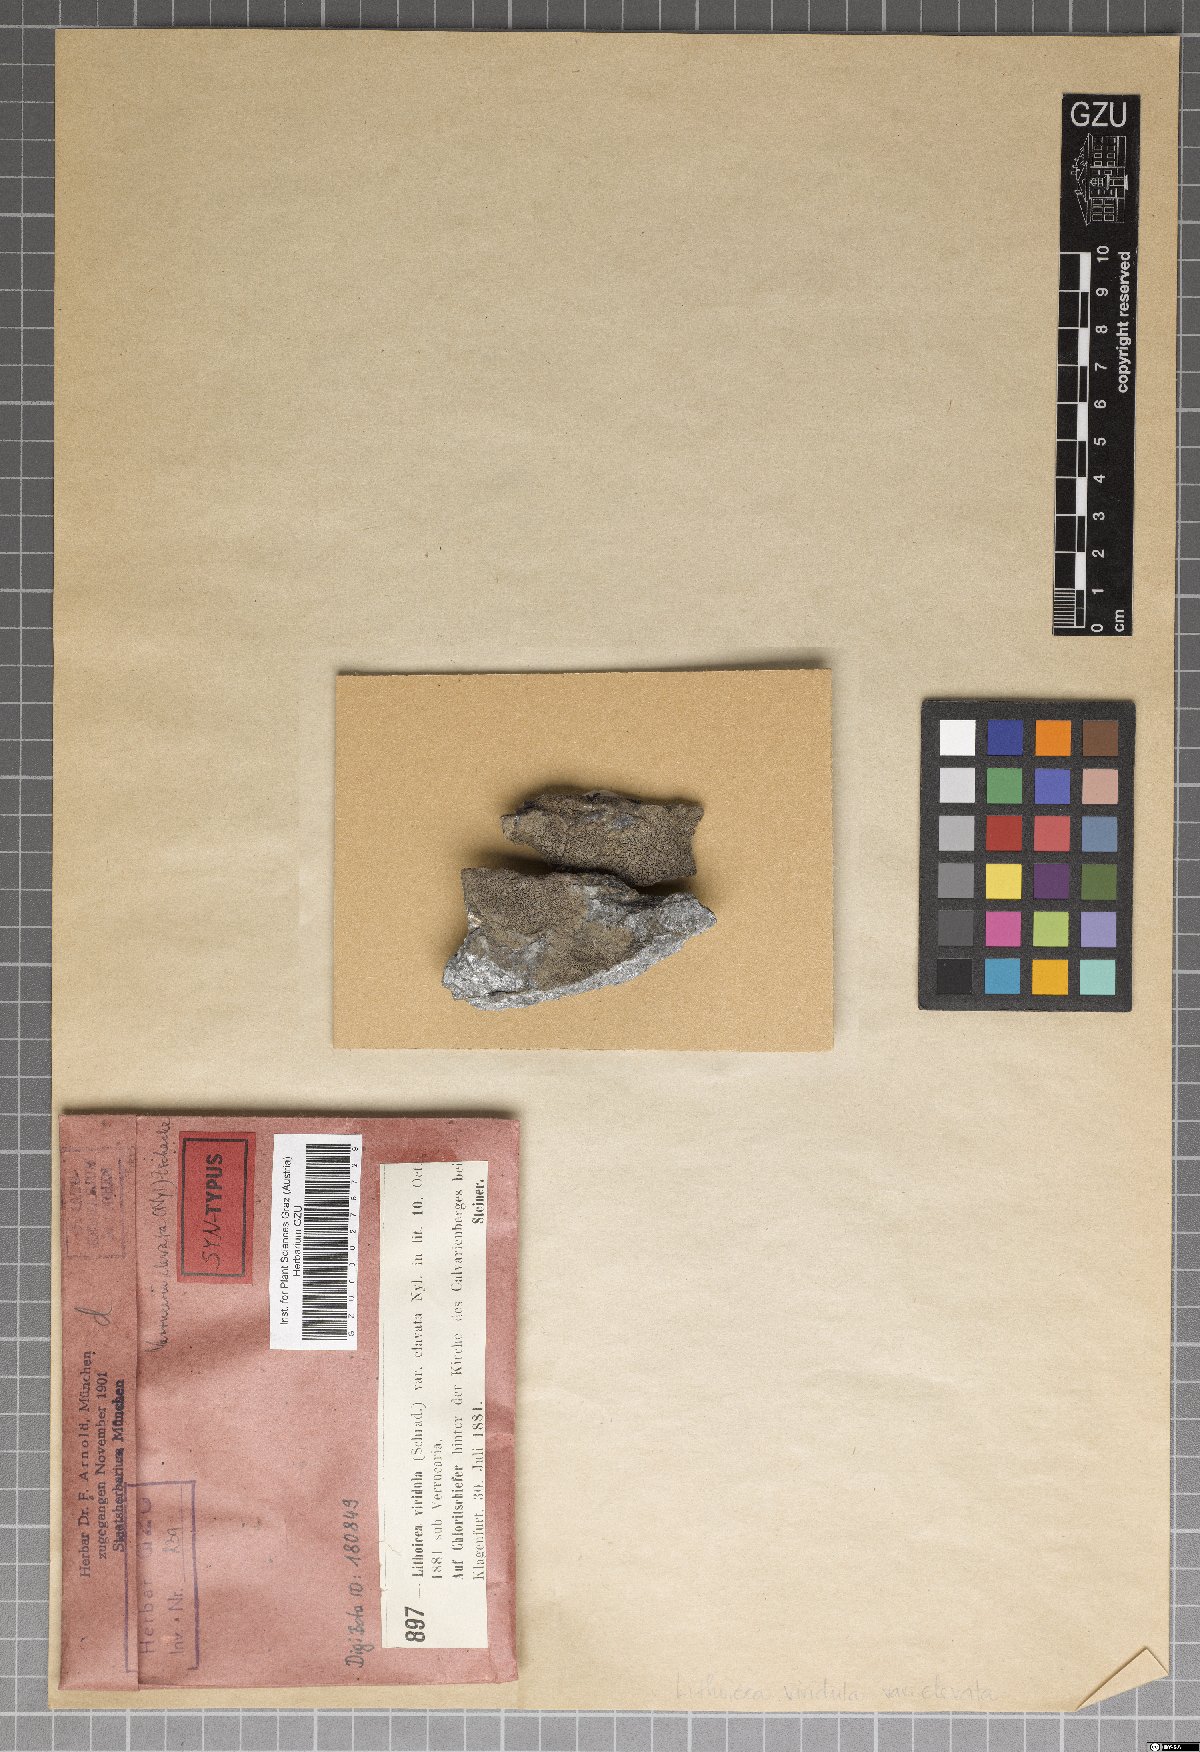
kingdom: Fungi
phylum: Ascomycota
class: Eurotiomycetes
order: Verrucariales
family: Verrucariaceae
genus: Verrucaria
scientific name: Verrucaria viridula
